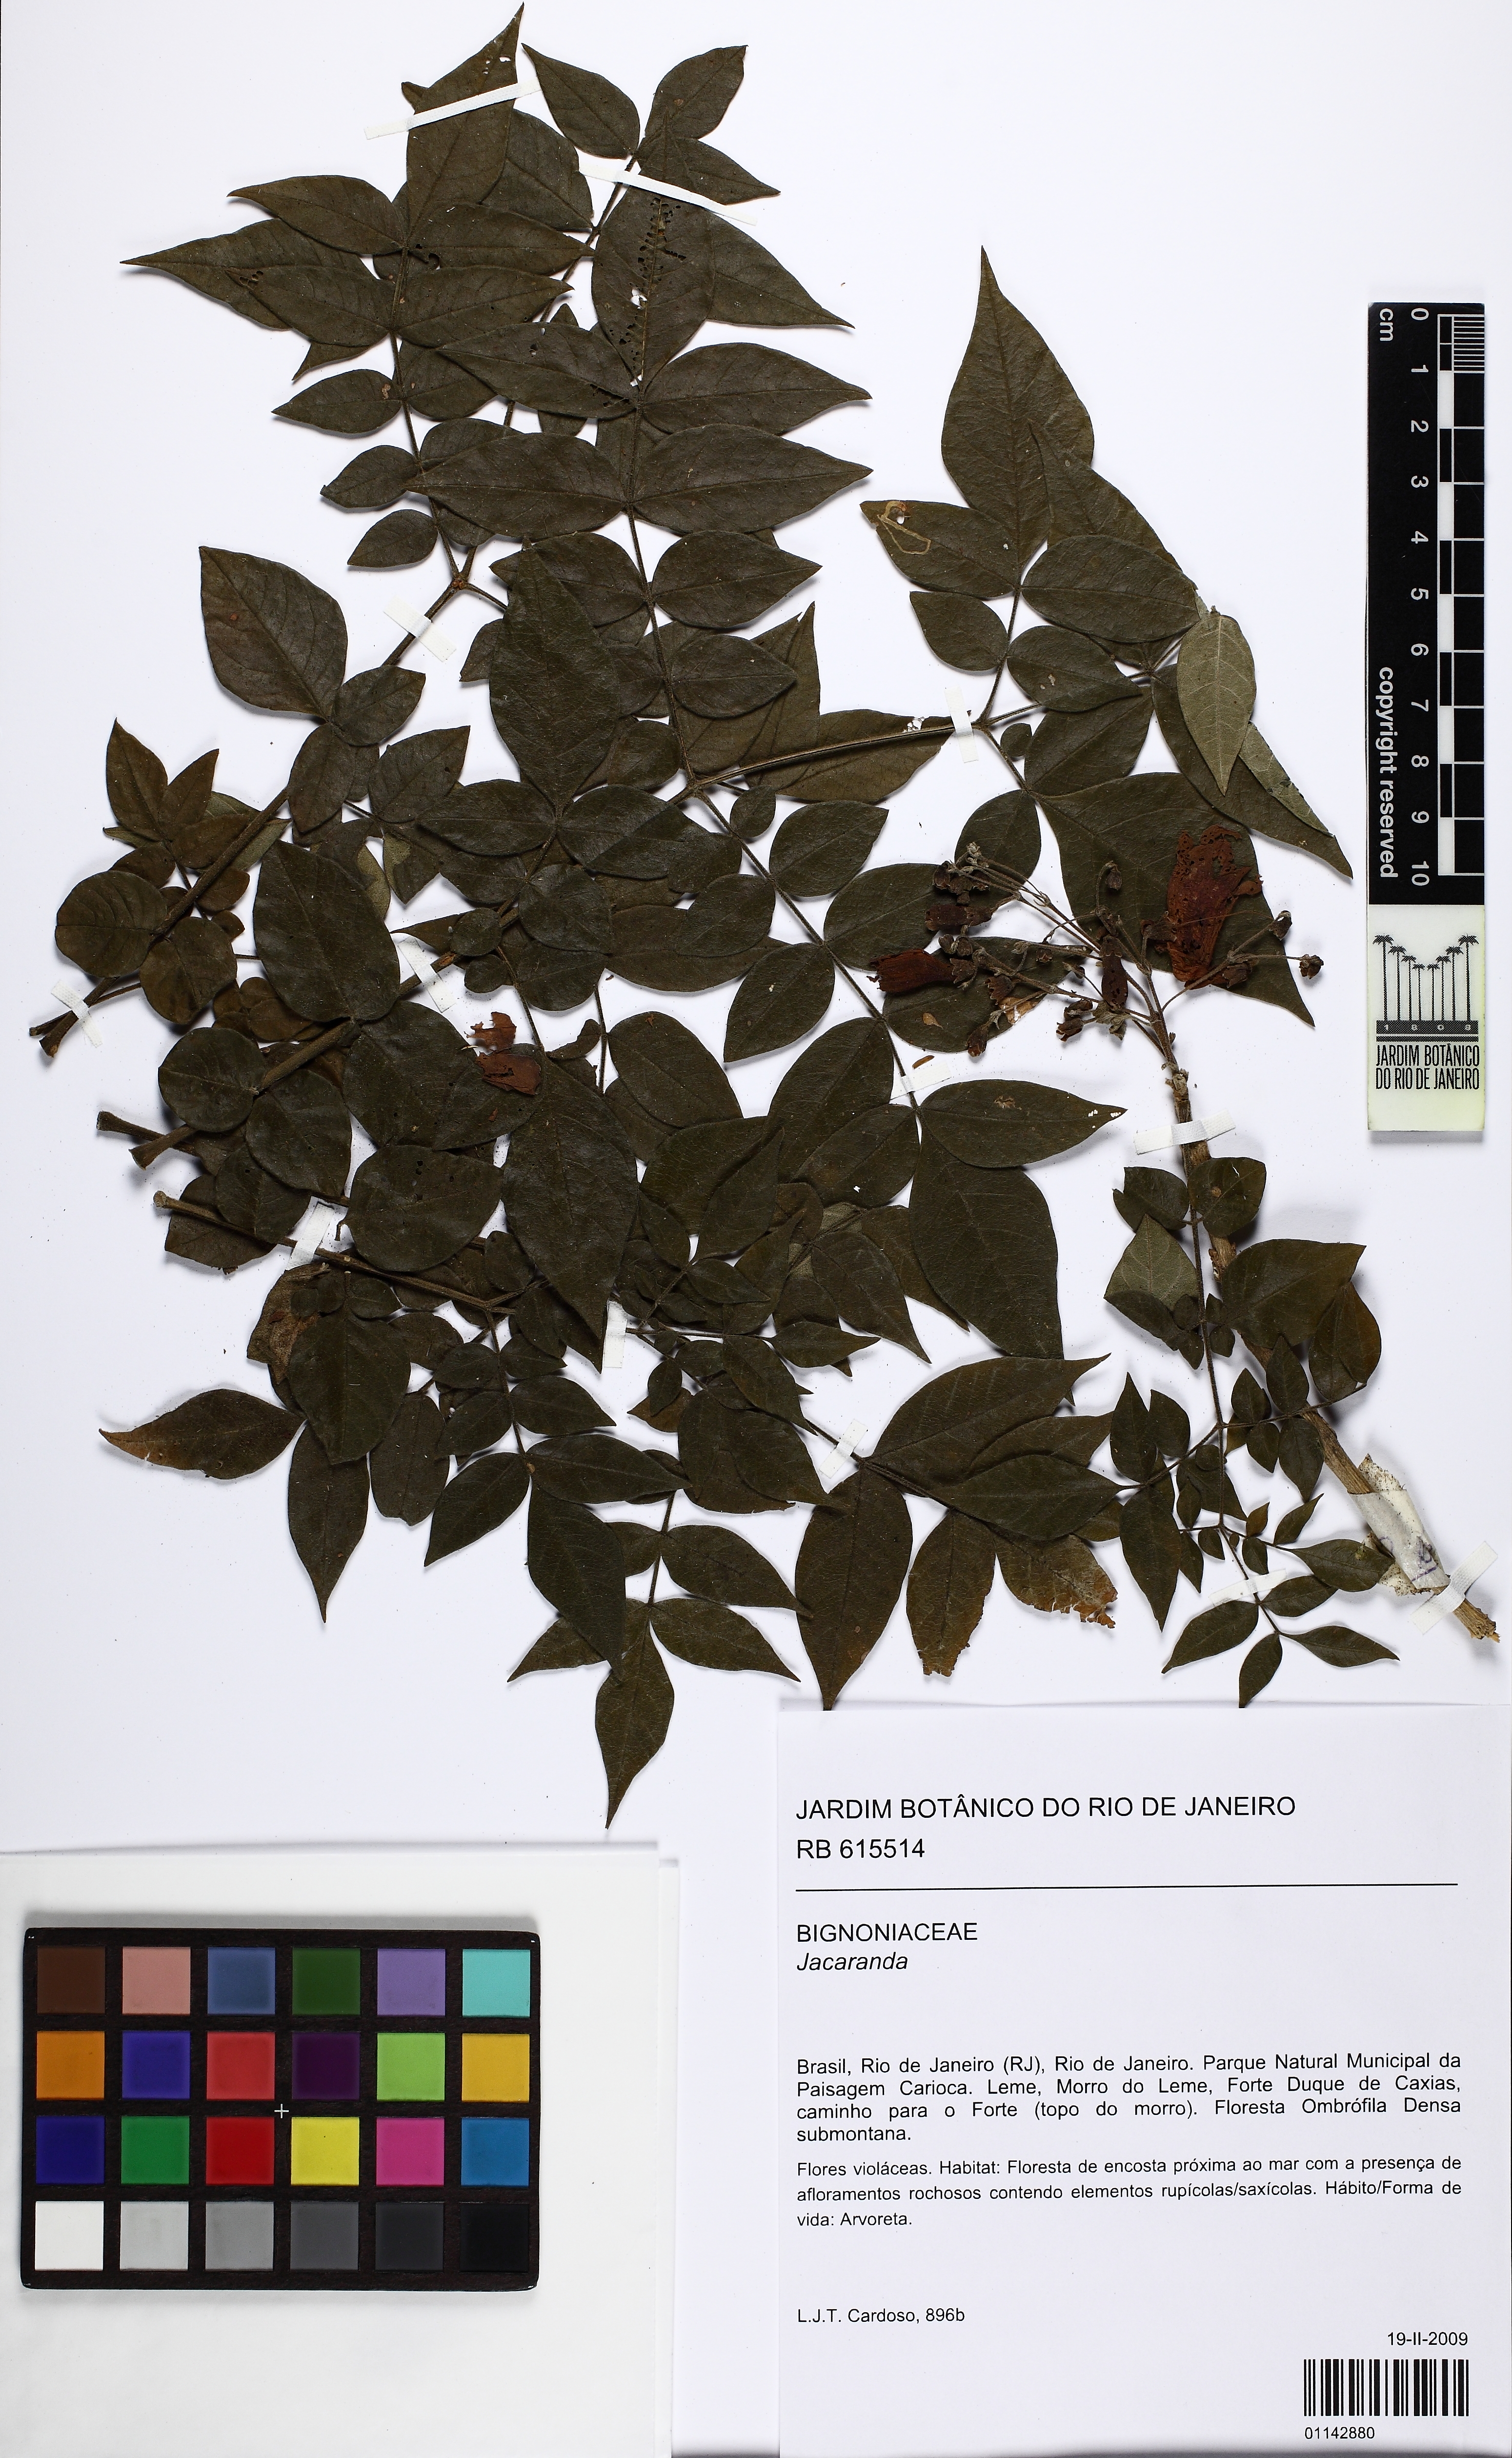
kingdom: Plantae
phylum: Tracheophyta
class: Magnoliopsida
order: Lamiales
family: Bignoniaceae
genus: Jacaranda
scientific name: Jacaranda
